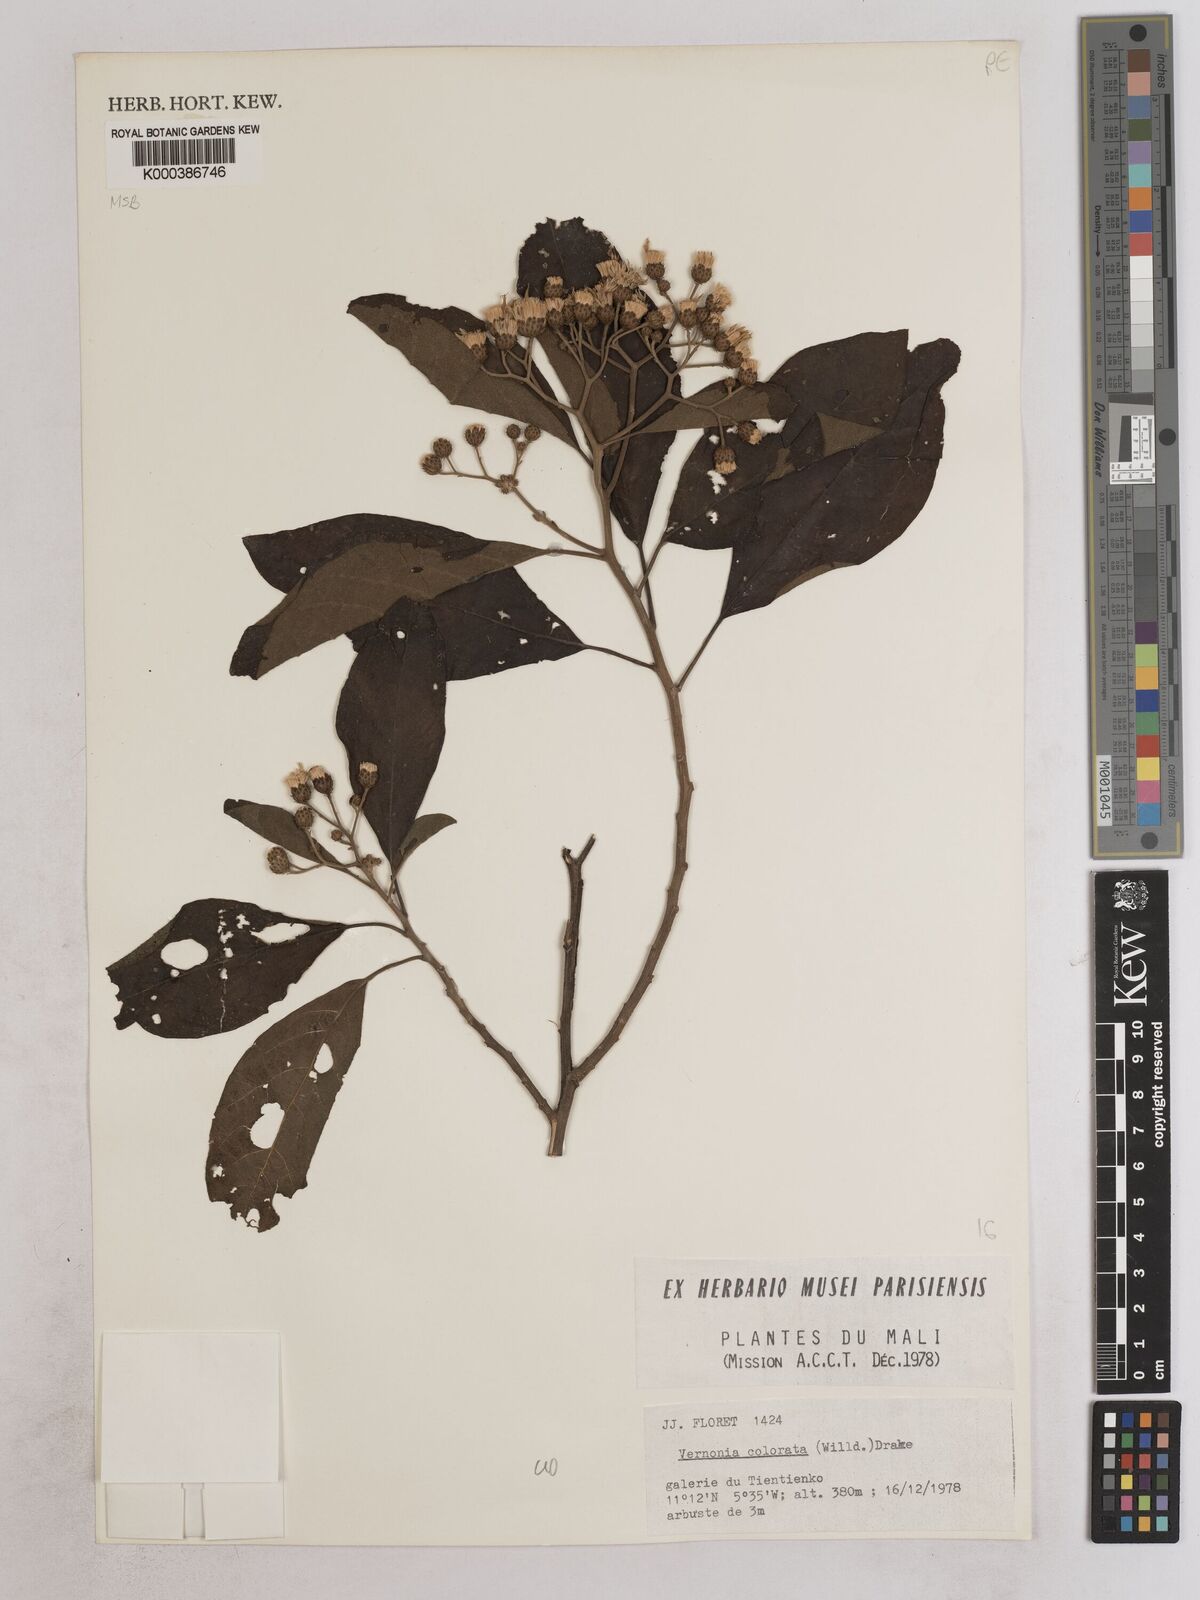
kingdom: Plantae
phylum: Tracheophyta
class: Magnoliopsida
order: Asterales
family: Asteraceae
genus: Vernonia
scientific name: Vernonia colorata
